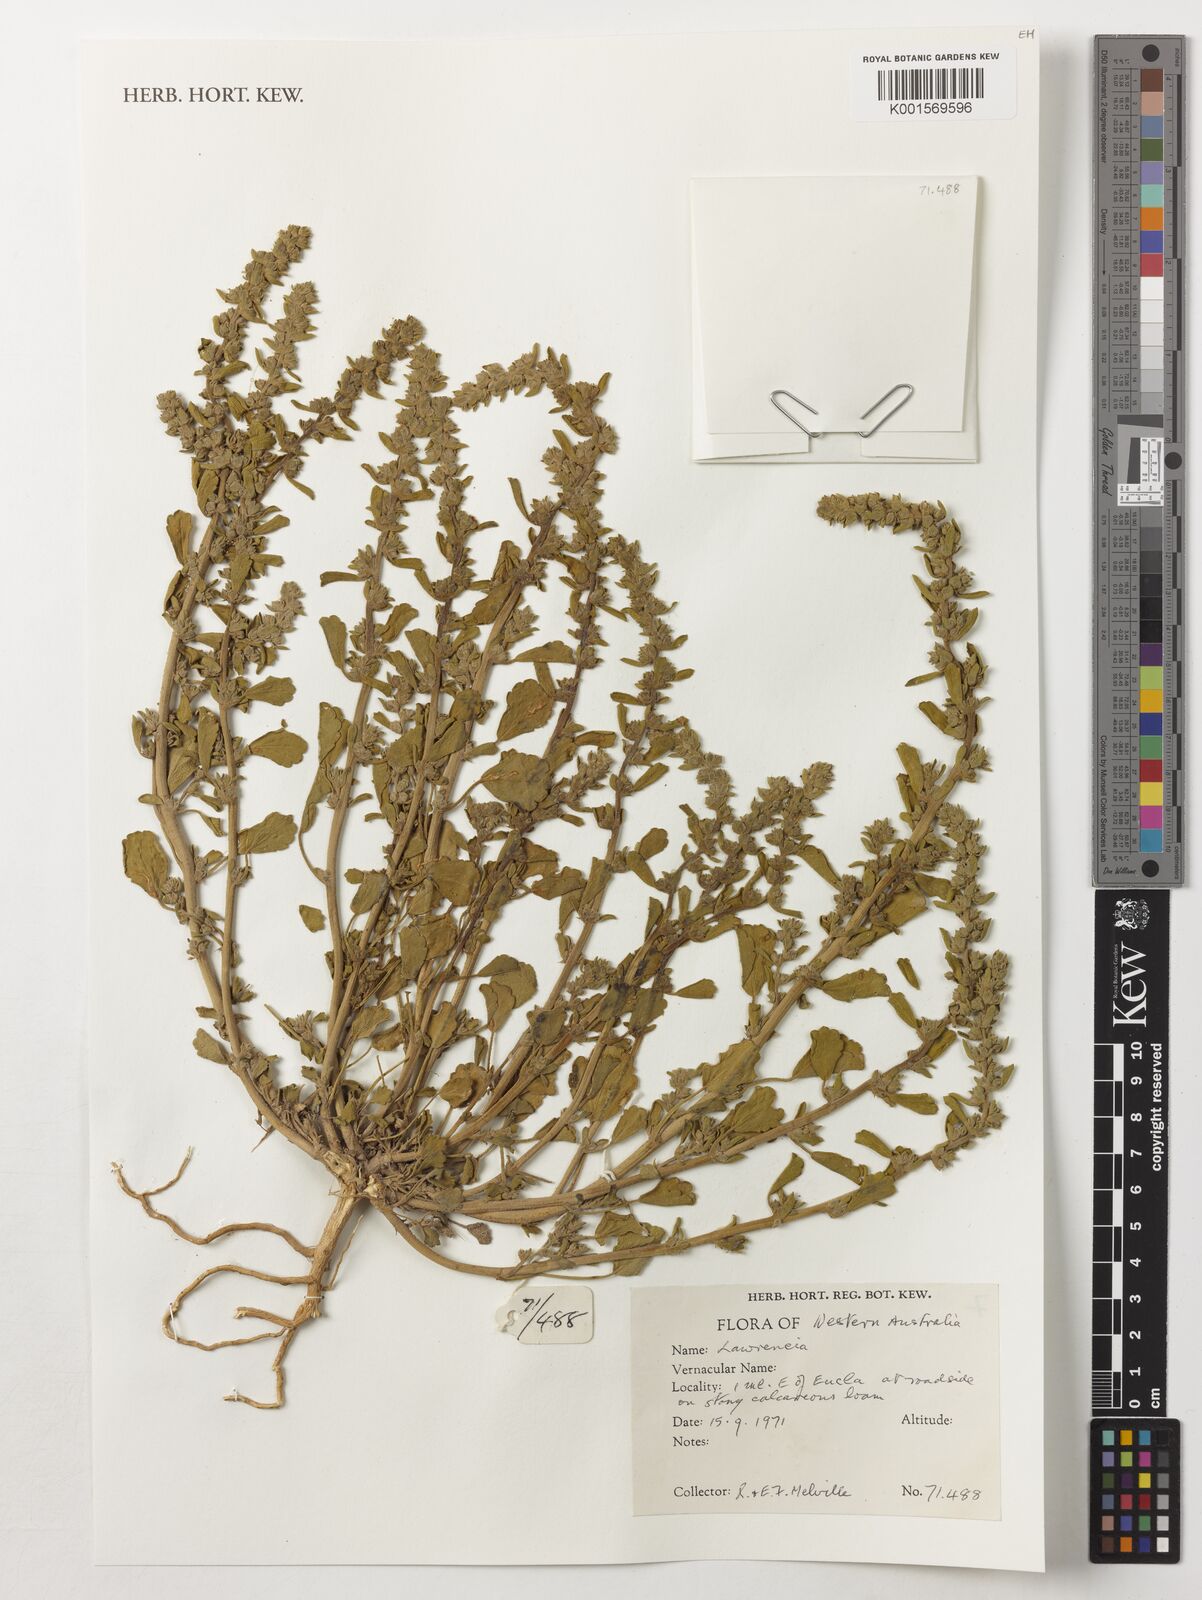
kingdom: Plantae
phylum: Tracheophyta
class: Magnoliopsida
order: Malvales
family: Malvaceae
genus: Lawrencia
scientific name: Lawrencia
